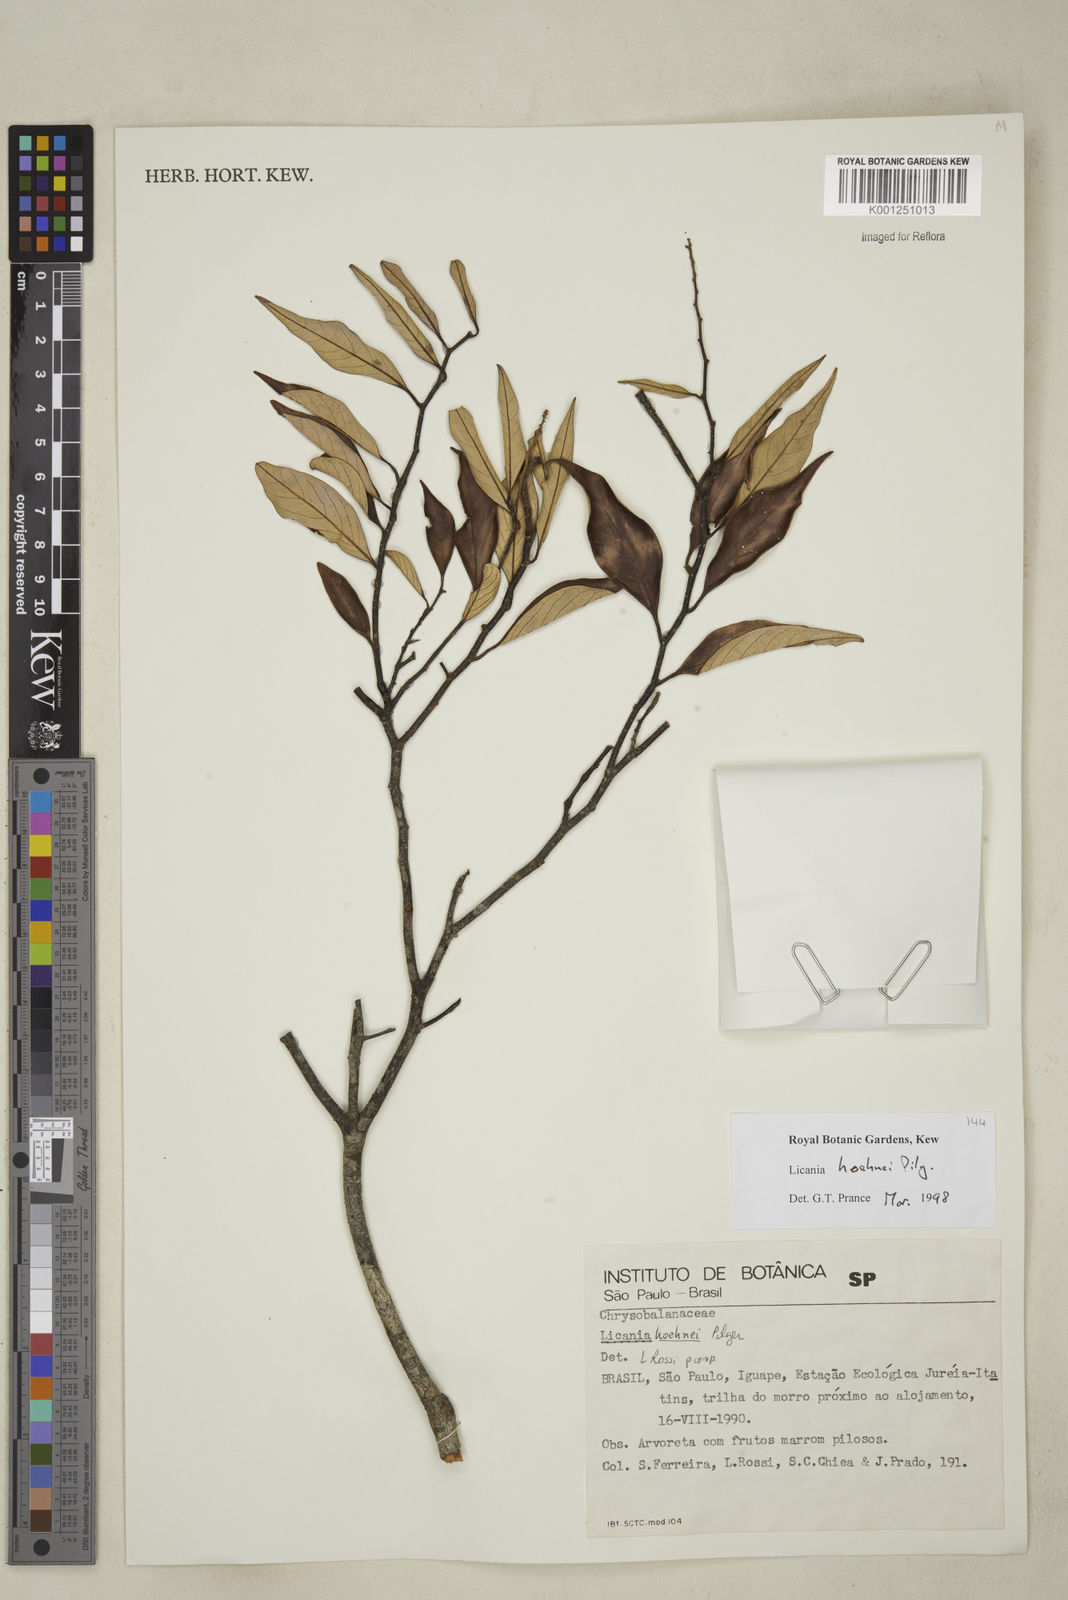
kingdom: Plantae
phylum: Tracheophyta
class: Magnoliopsida
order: Malpighiales
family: Chrysobalanaceae
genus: Licania
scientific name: Licania indurata
